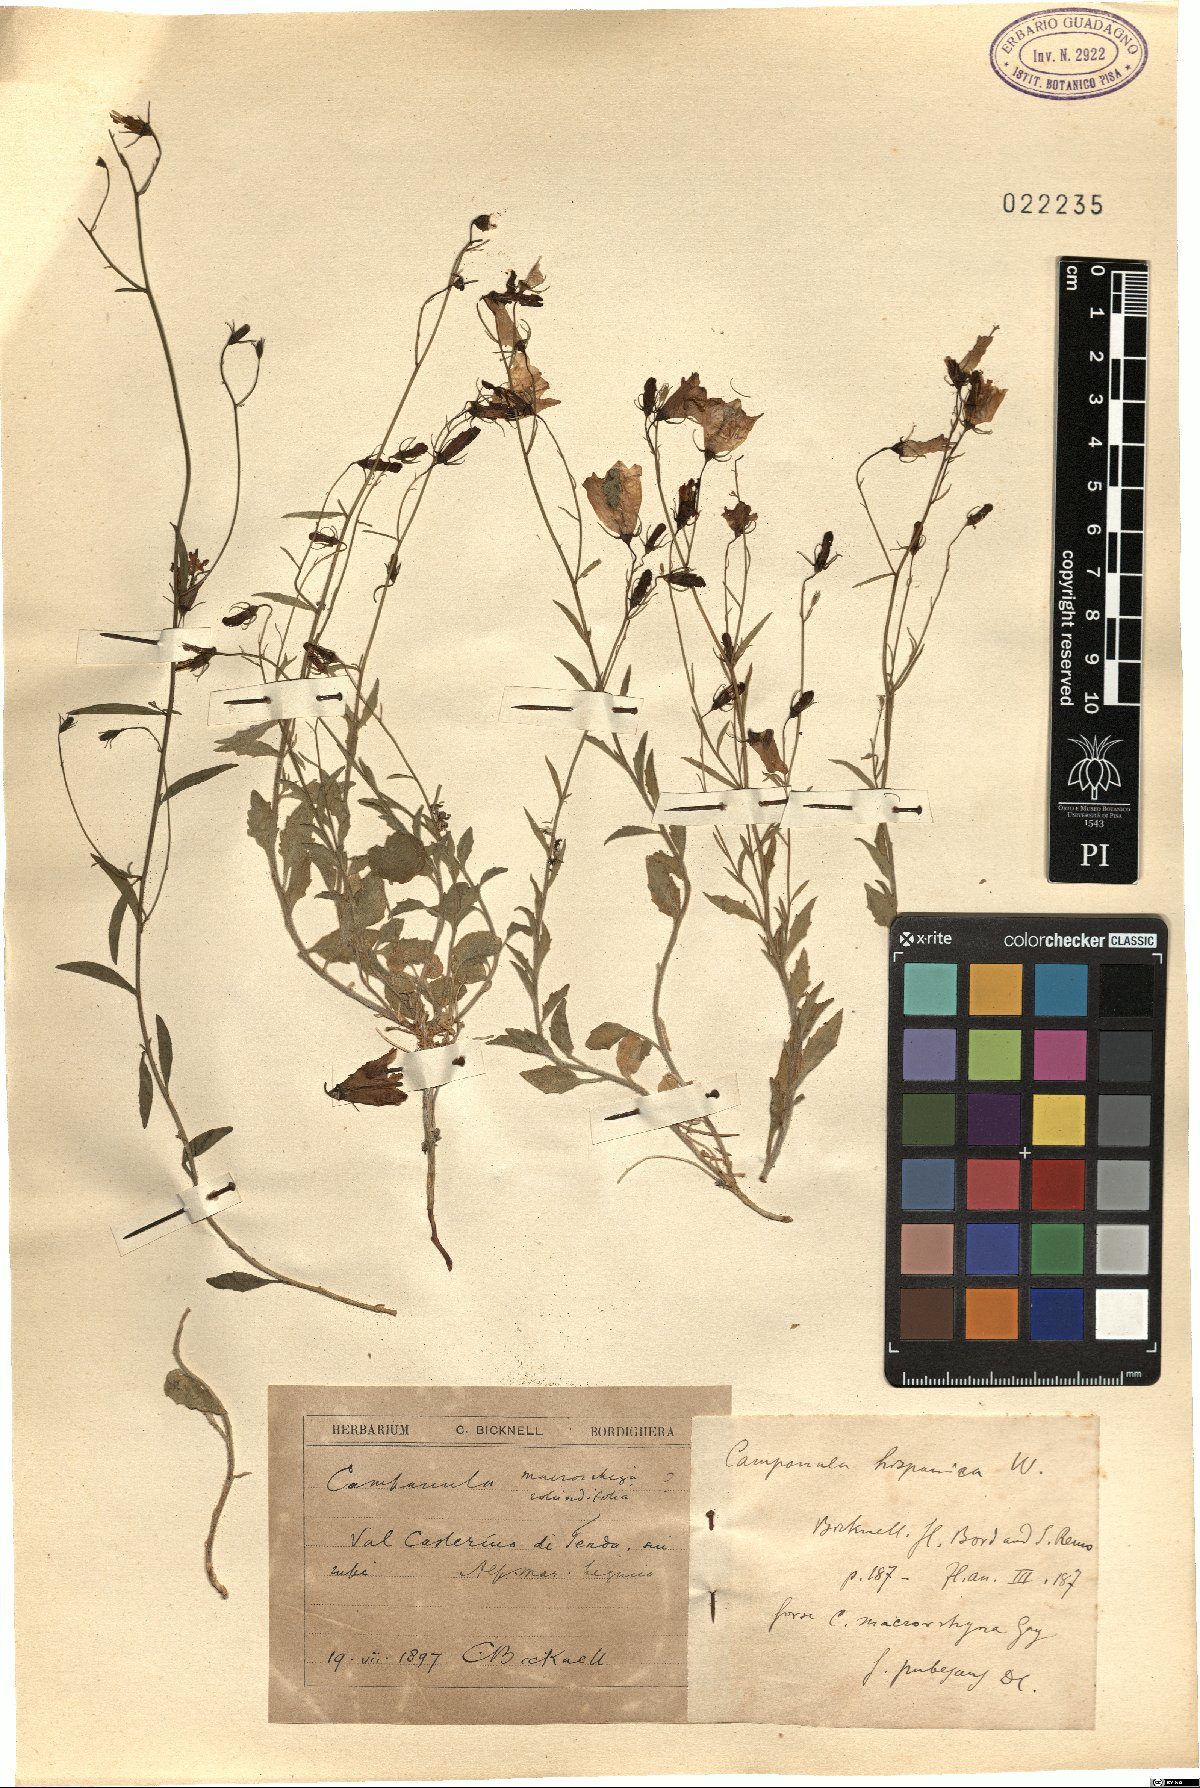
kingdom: Plantae
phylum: Tracheophyta
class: Magnoliopsida
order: Asterales
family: Campanulaceae
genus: Campanula
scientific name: Campanula hispanica
